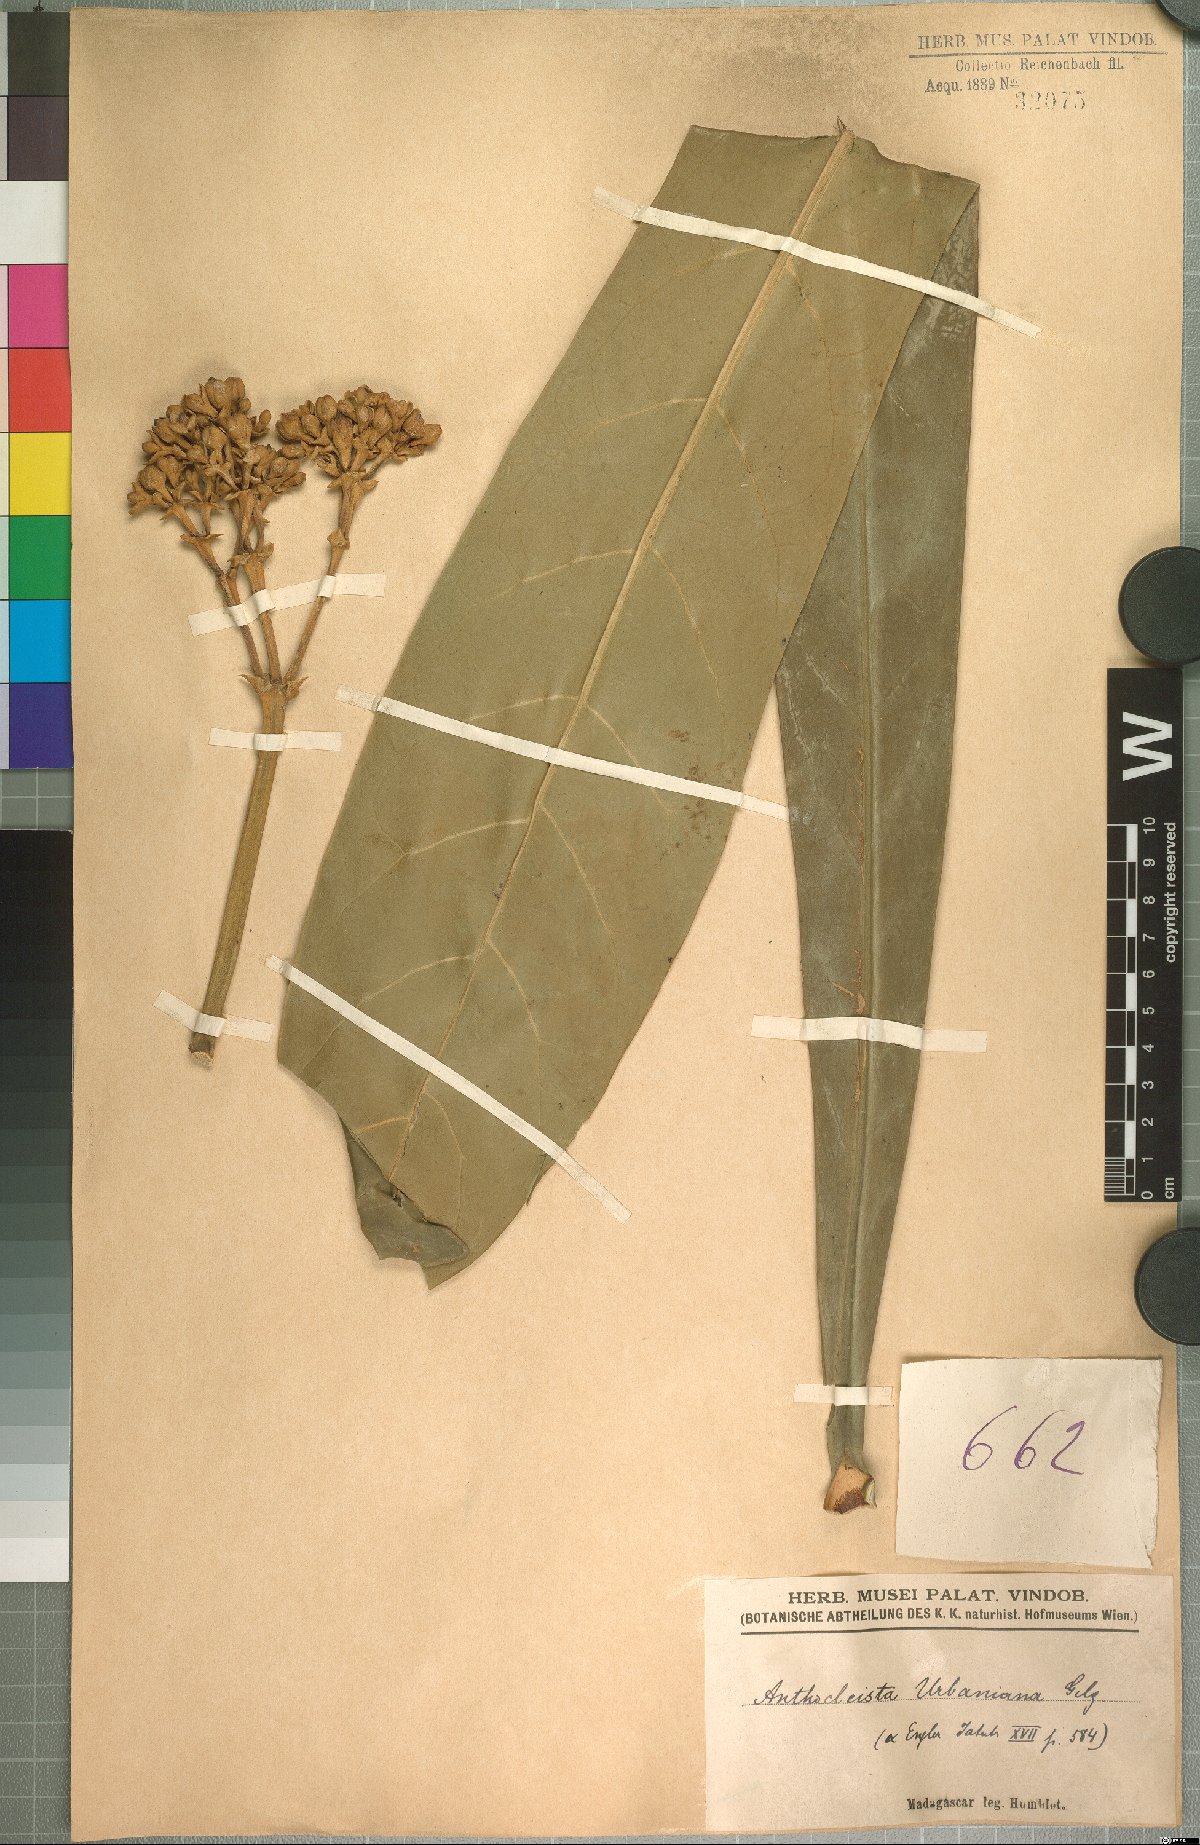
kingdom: Plantae
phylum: Tracheophyta
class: Magnoliopsida
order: Gentianales
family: Gentianaceae
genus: Anthocleista
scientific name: Anthocleista longifolia
